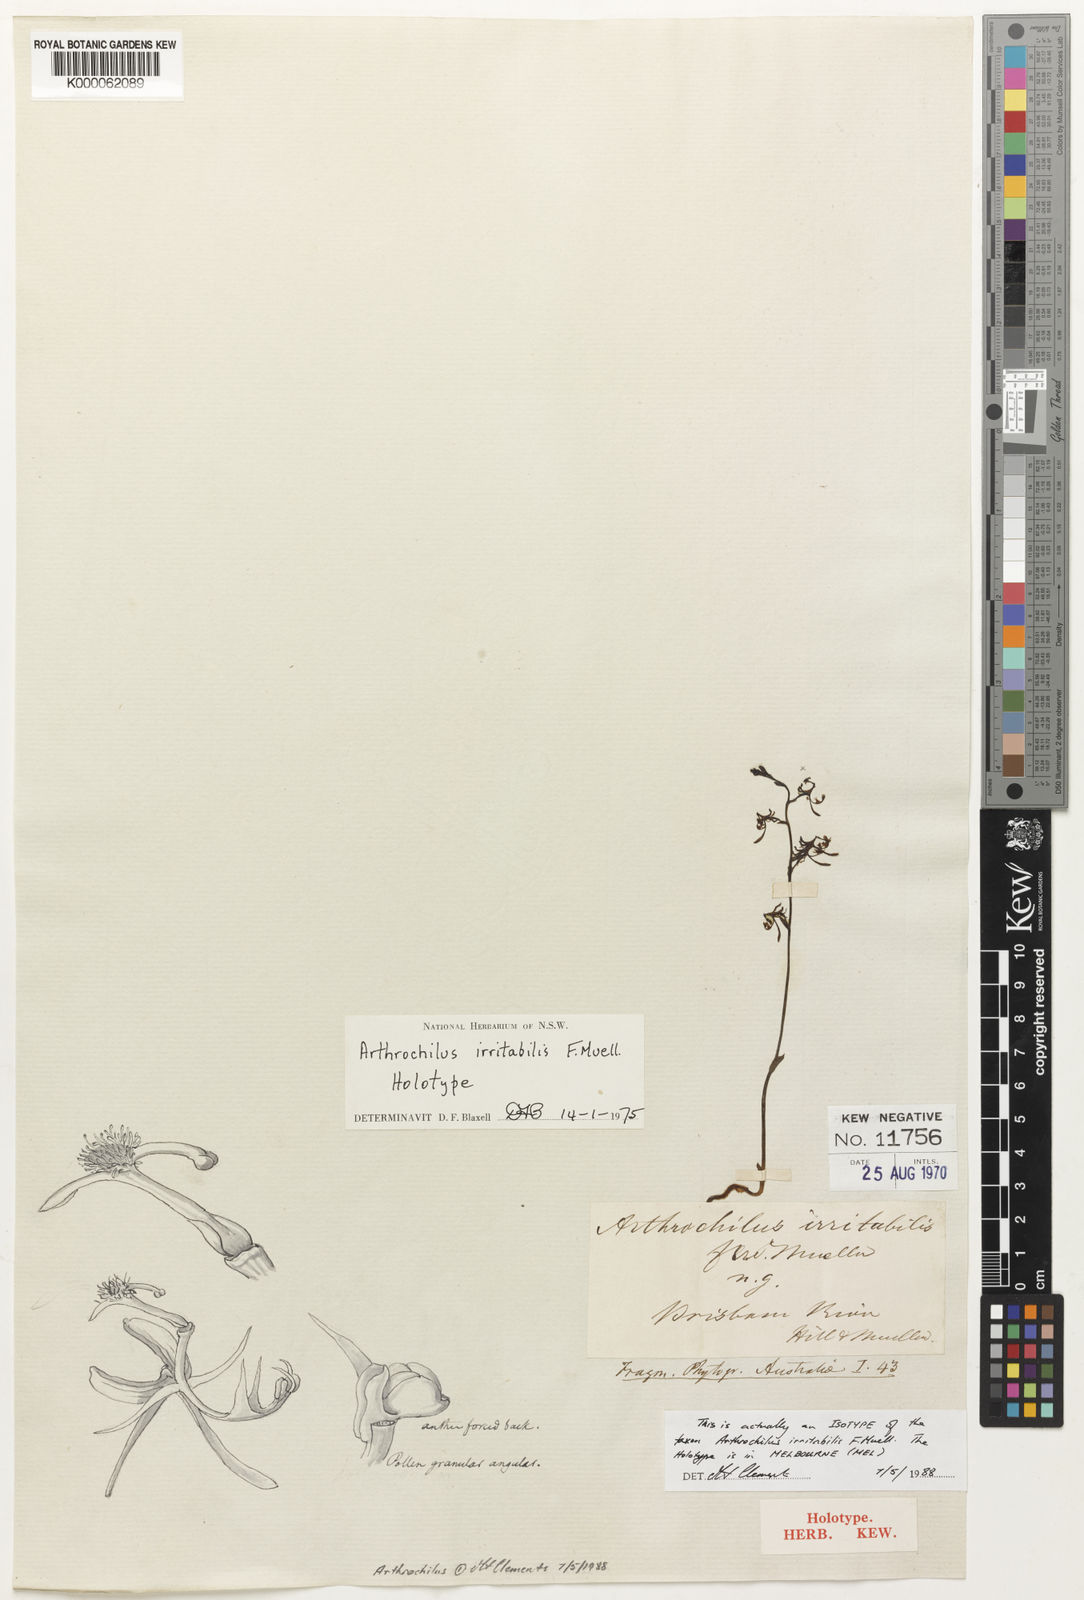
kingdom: Plantae
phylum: Tracheophyta
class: Liliopsida
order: Asparagales
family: Orchidaceae
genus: Arthrochilus
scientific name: Arthrochilus irritabilis
